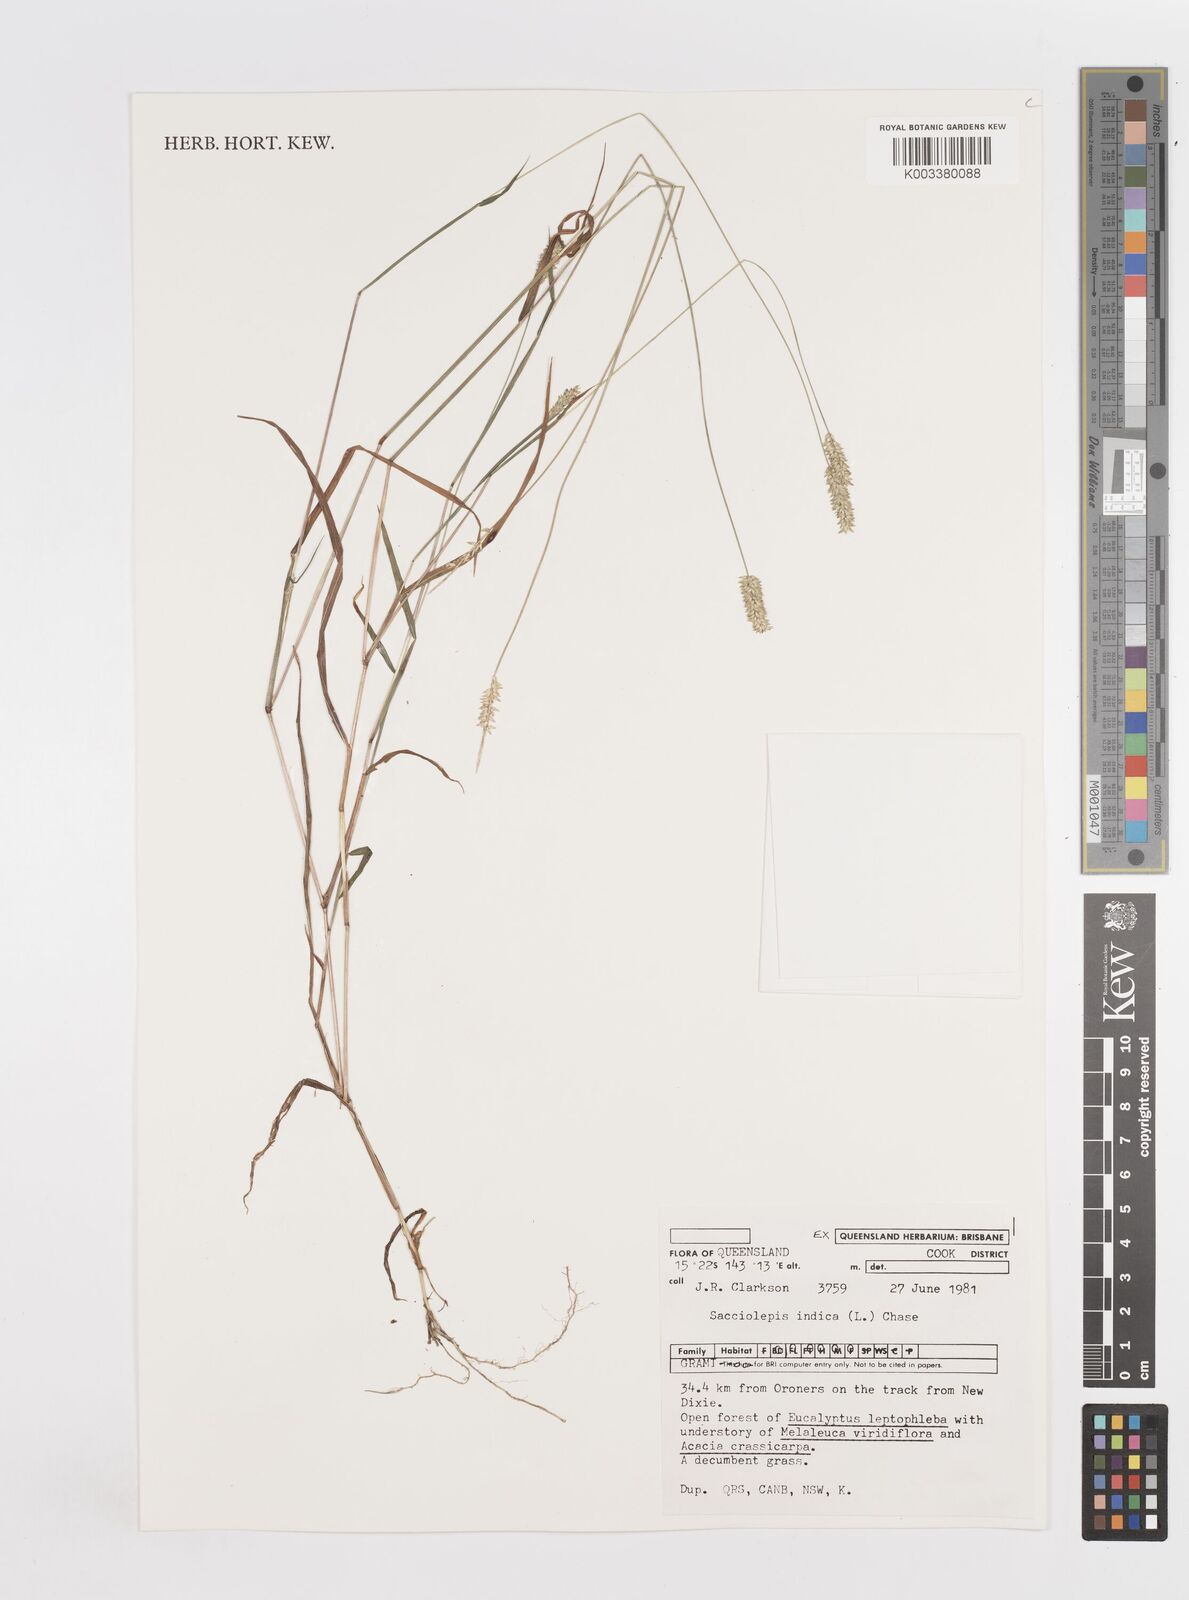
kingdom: Plantae
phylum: Tracheophyta
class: Liliopsida
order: Poales
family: Poaceae
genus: Sacciolepis
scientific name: Sacciolepis indica
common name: Glenwoodgrass
